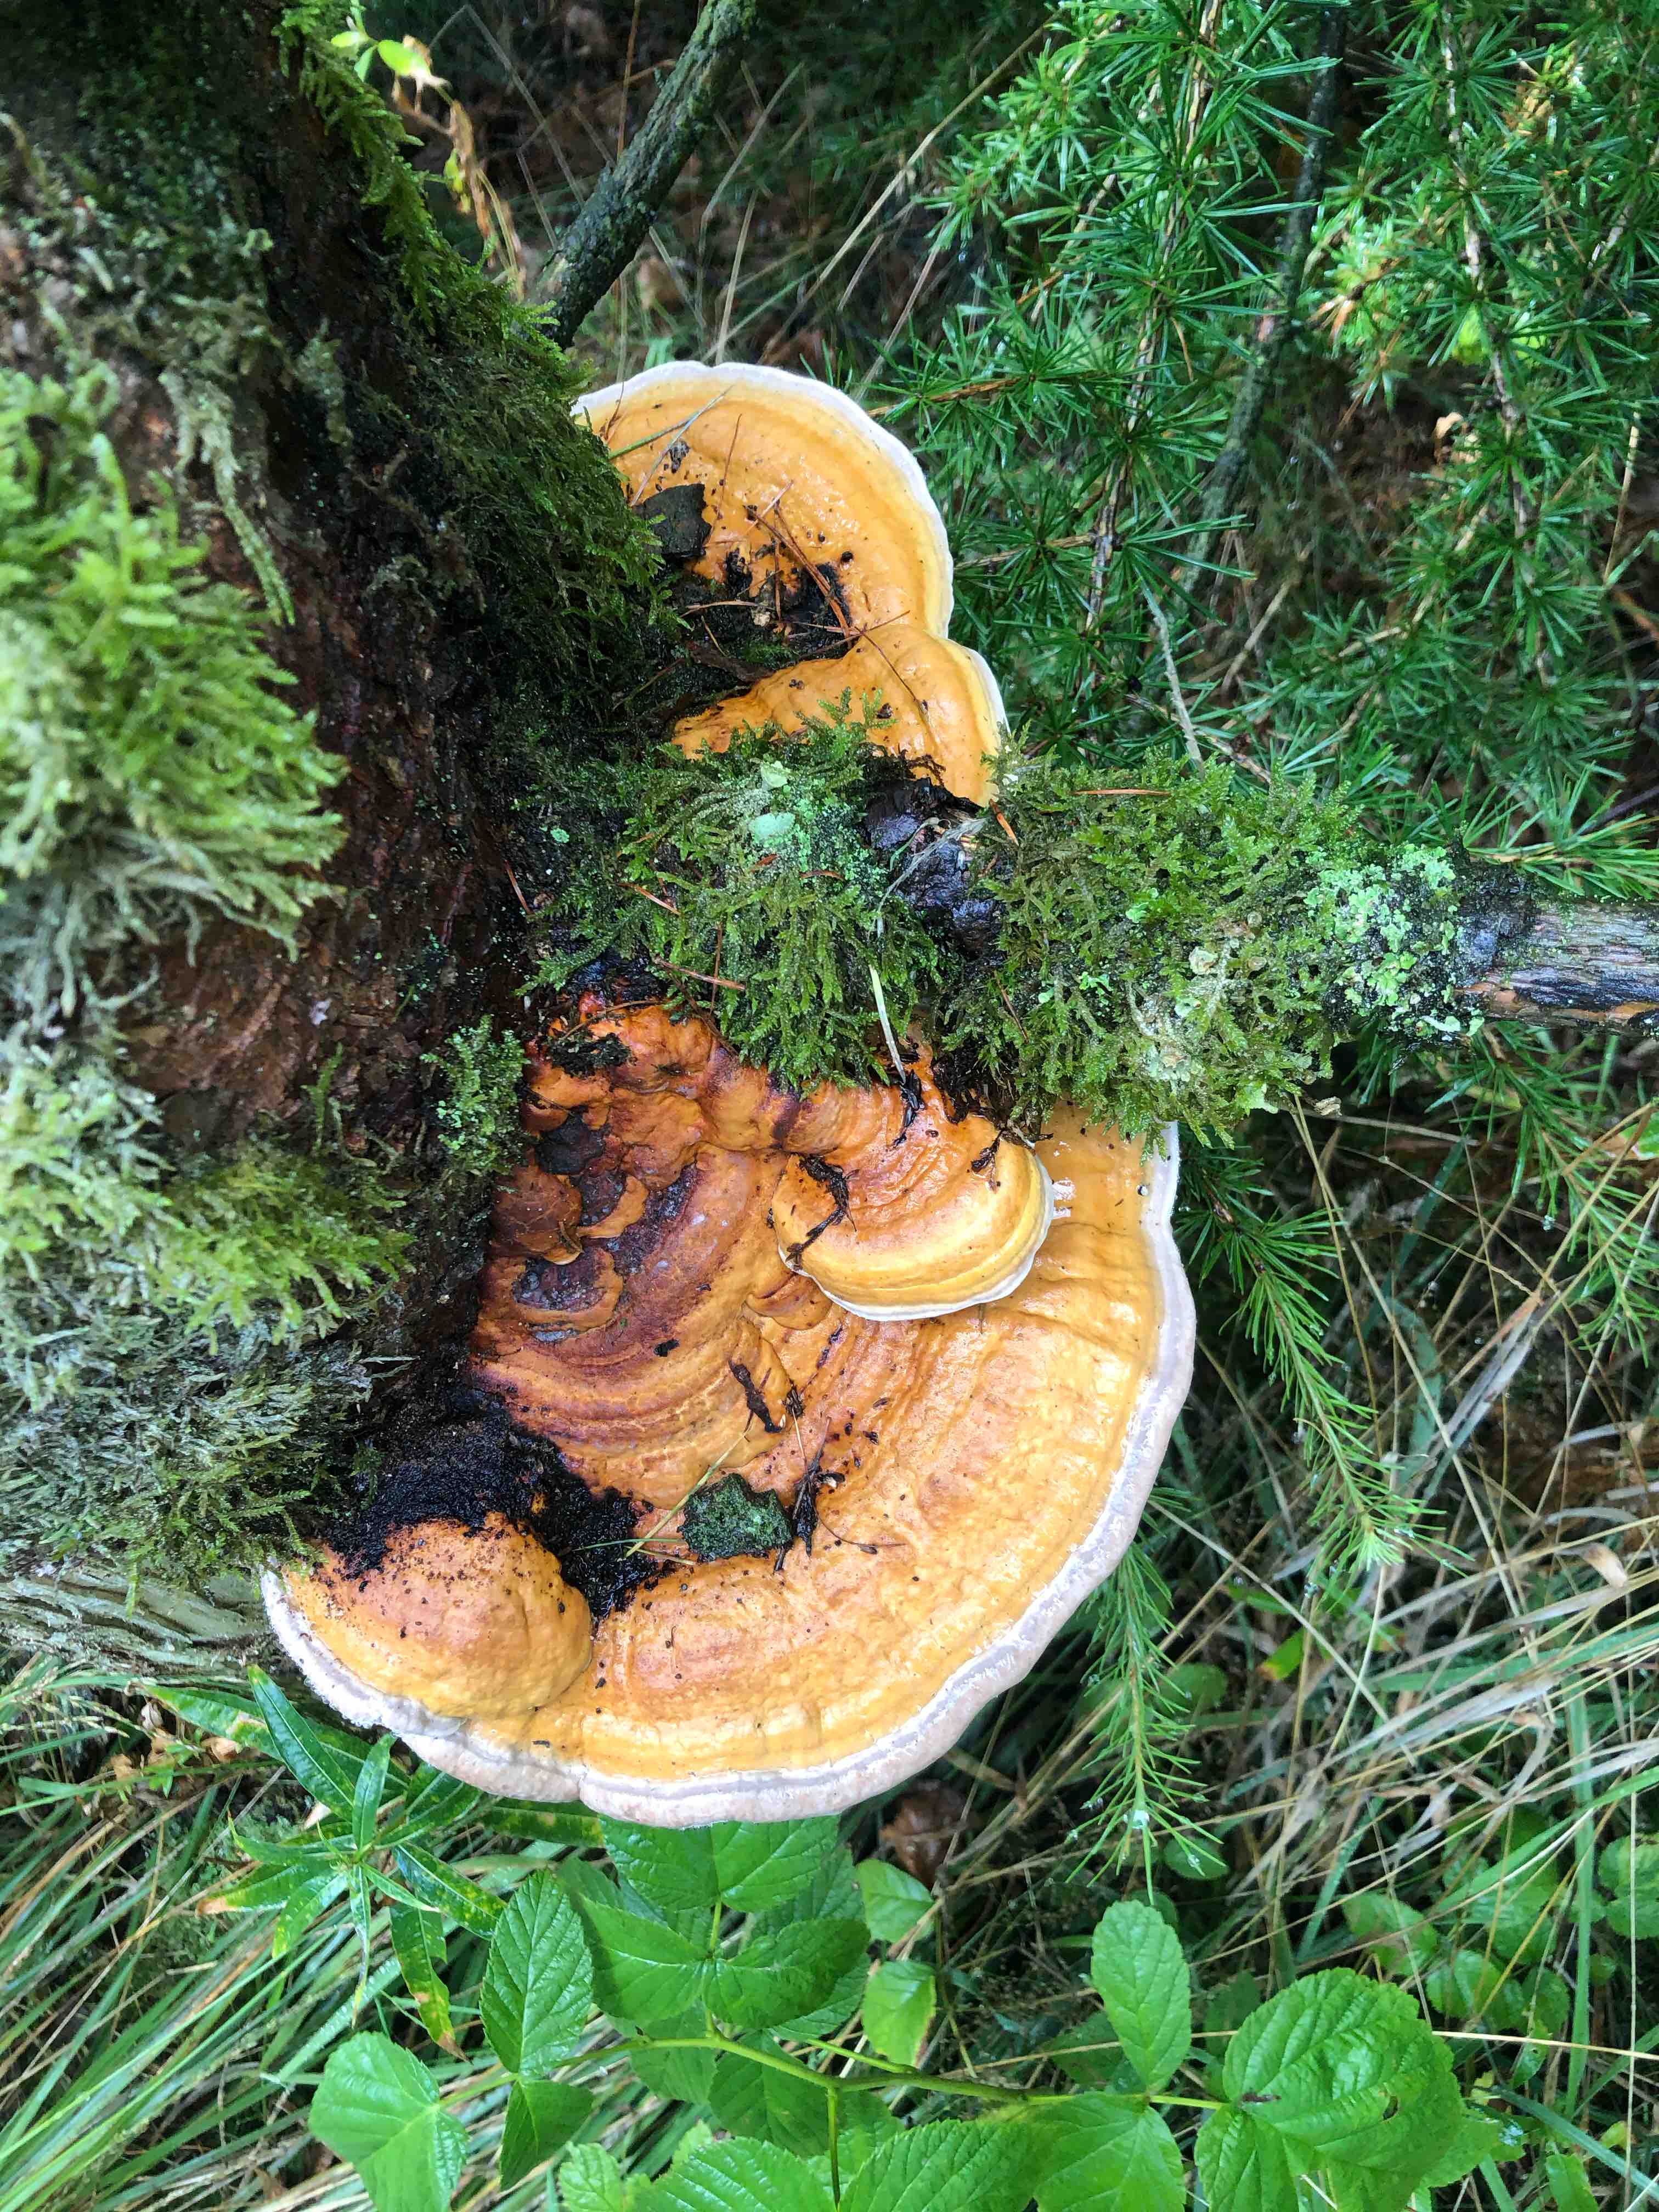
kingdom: Fungi
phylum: Basidiomycota
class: Agaricomycetes
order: Polyporales
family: Fomitopsidaceae
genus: Fomitopsis
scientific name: Fomitopsis pinicola
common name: randbæltet hovporesvamp
